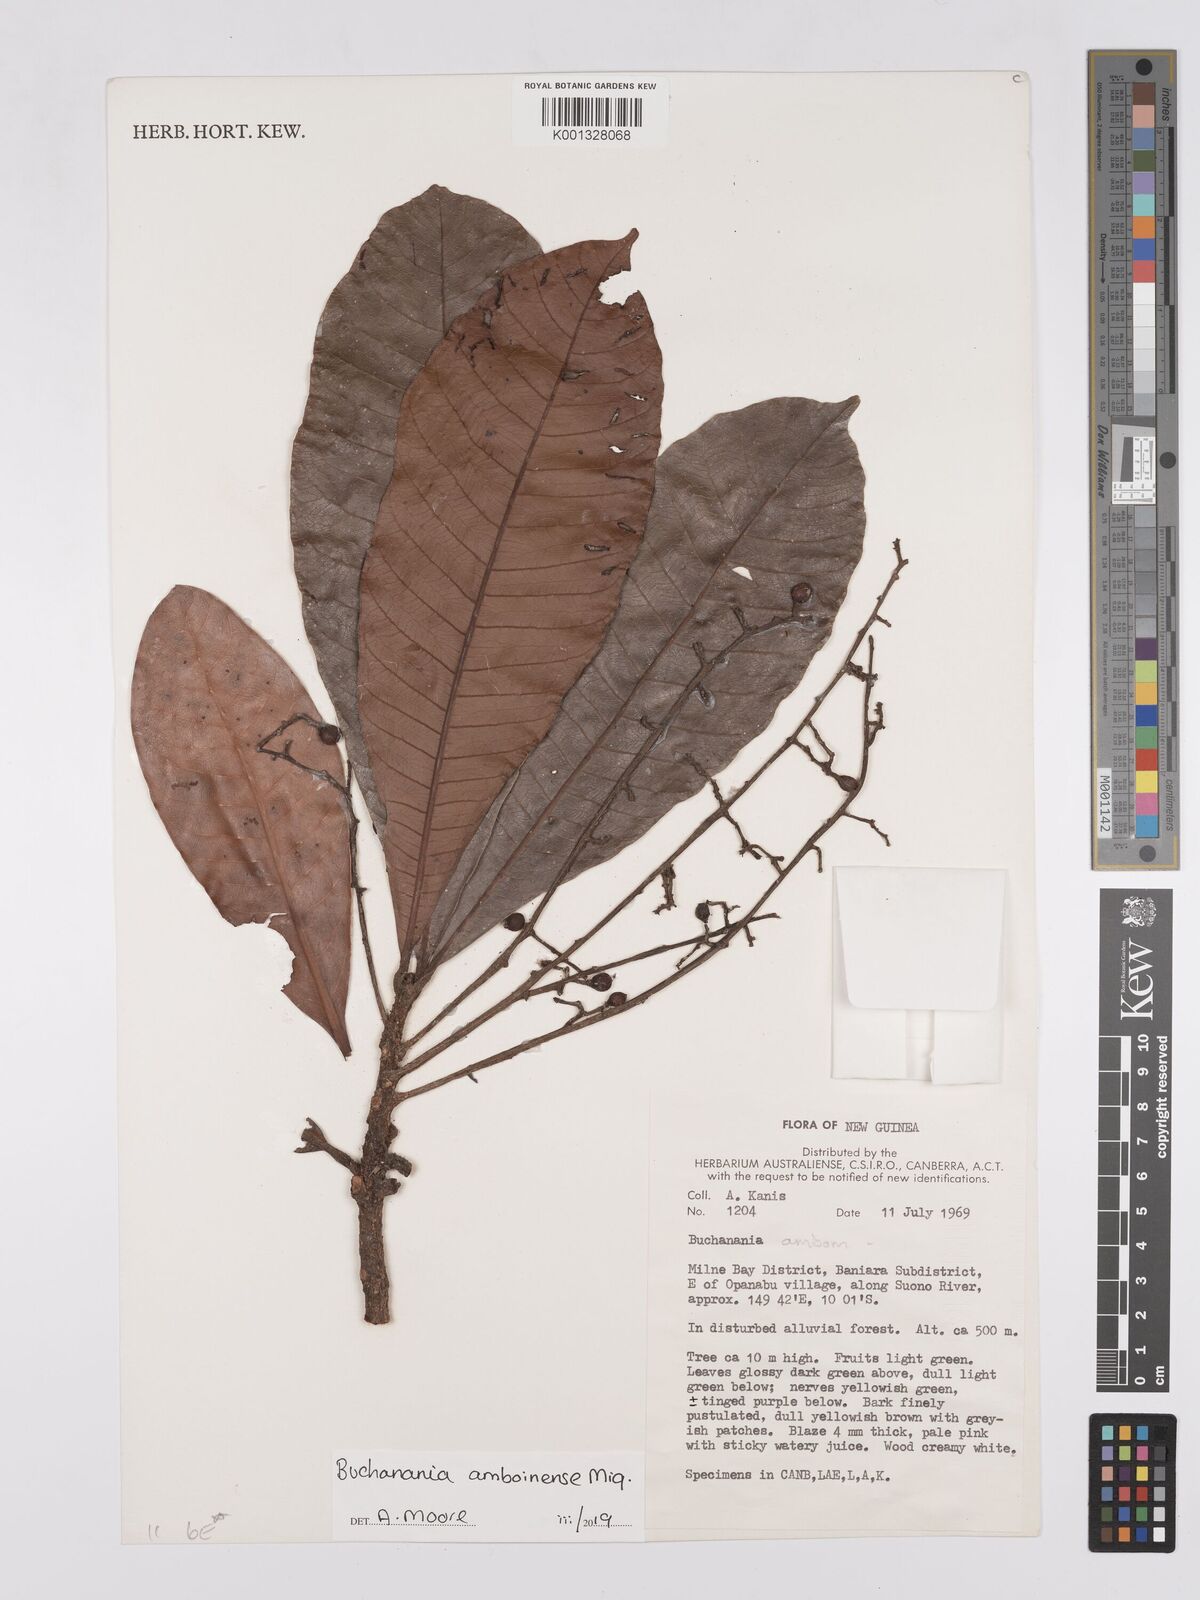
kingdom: Plantae
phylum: Tracheophyta
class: Magnoliopsida
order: Sapindales
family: Anacardiaceae
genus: Buchanania
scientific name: Buchanania
